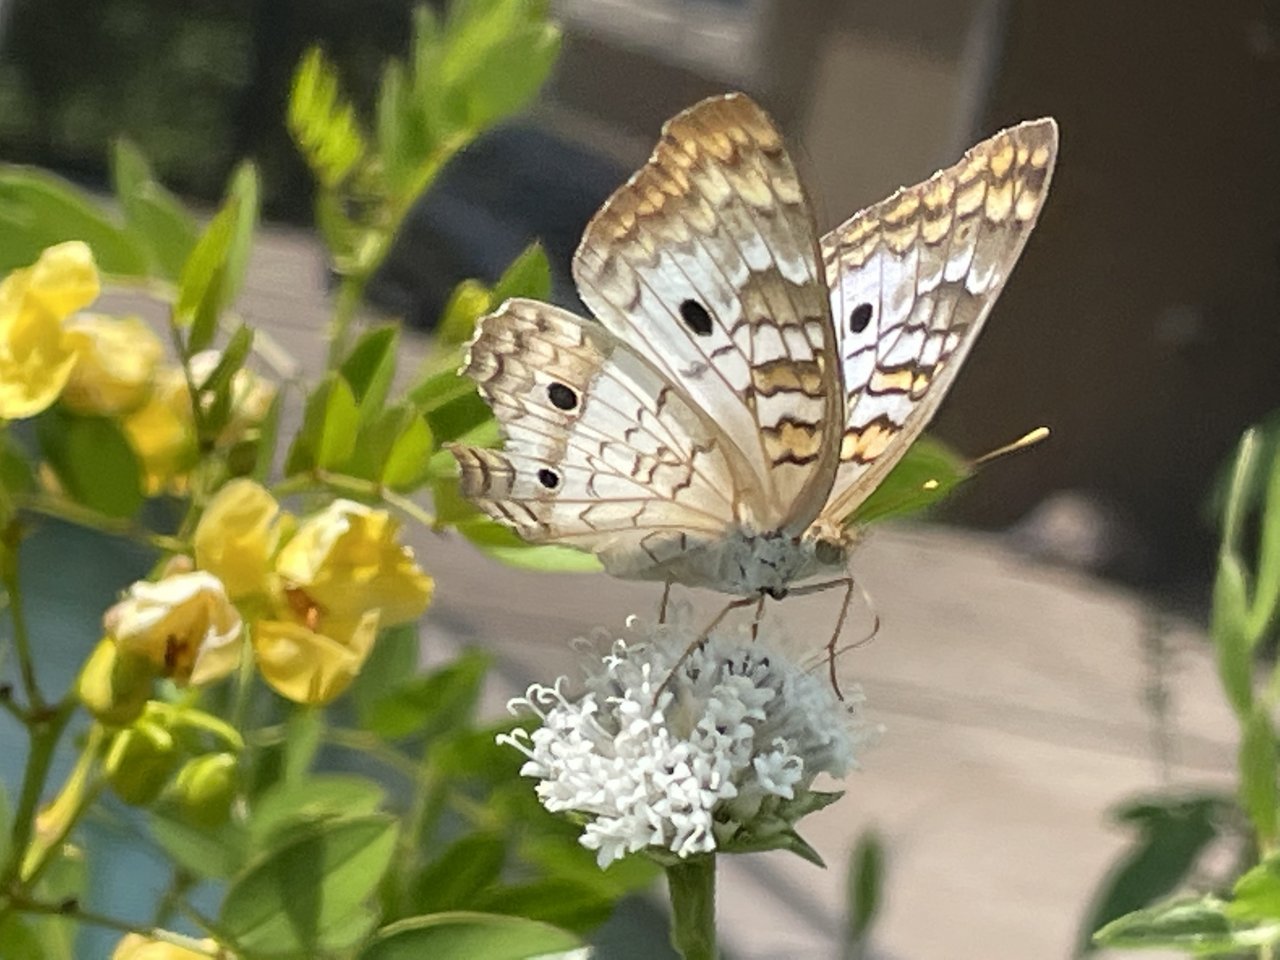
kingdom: Animalia
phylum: Arthropoda
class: Insecta
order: Lepidoptera
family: Nymphalidae
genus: Anartia
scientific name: Anartia jatrophae
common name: White Peacock
